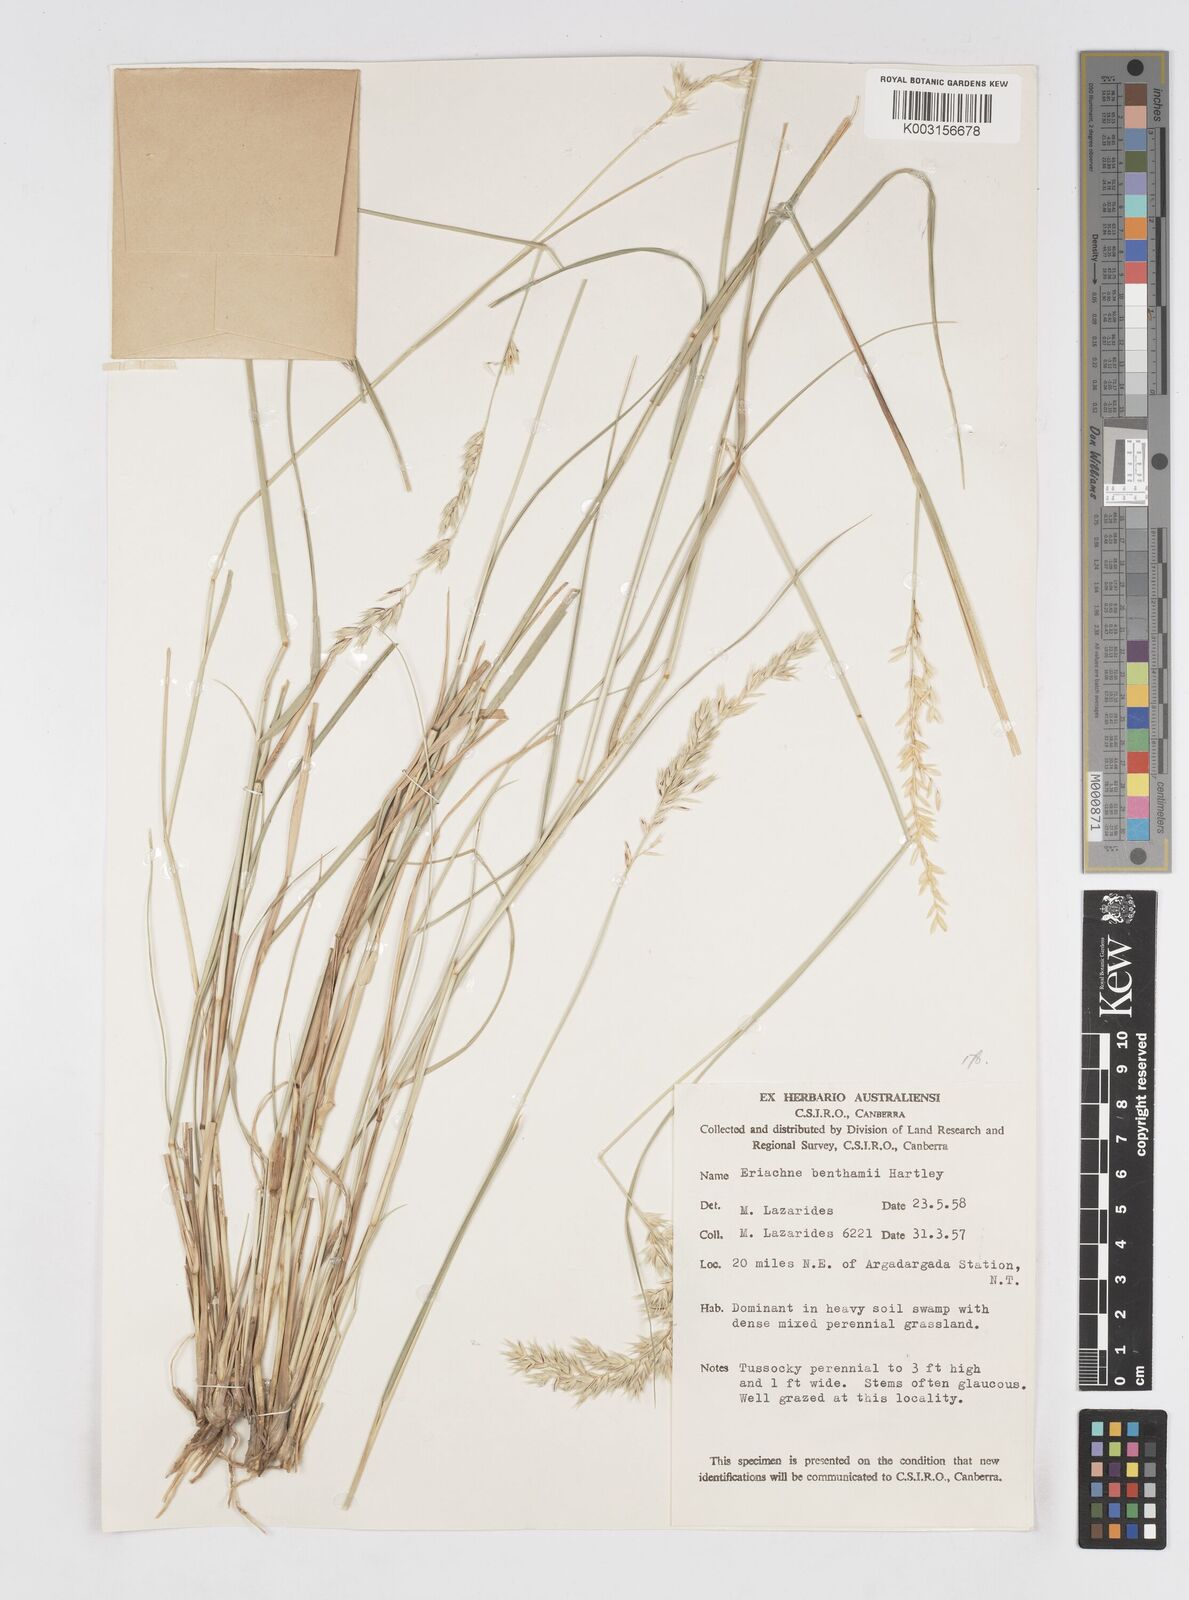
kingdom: Plantae
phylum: Tracheophyta
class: Liliopsida
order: Poales
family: Poaceae
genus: Eriachne
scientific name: Eriachne benthamii
